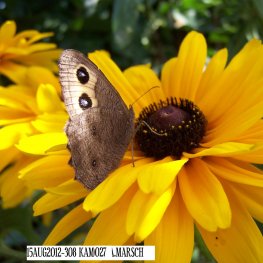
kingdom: Animalia
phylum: Arthropoda
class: Insecta
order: Lepidoptera
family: Nymphalidae
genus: Cercyonis
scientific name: Cercyonis pegala
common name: Common Wood-Nymph
